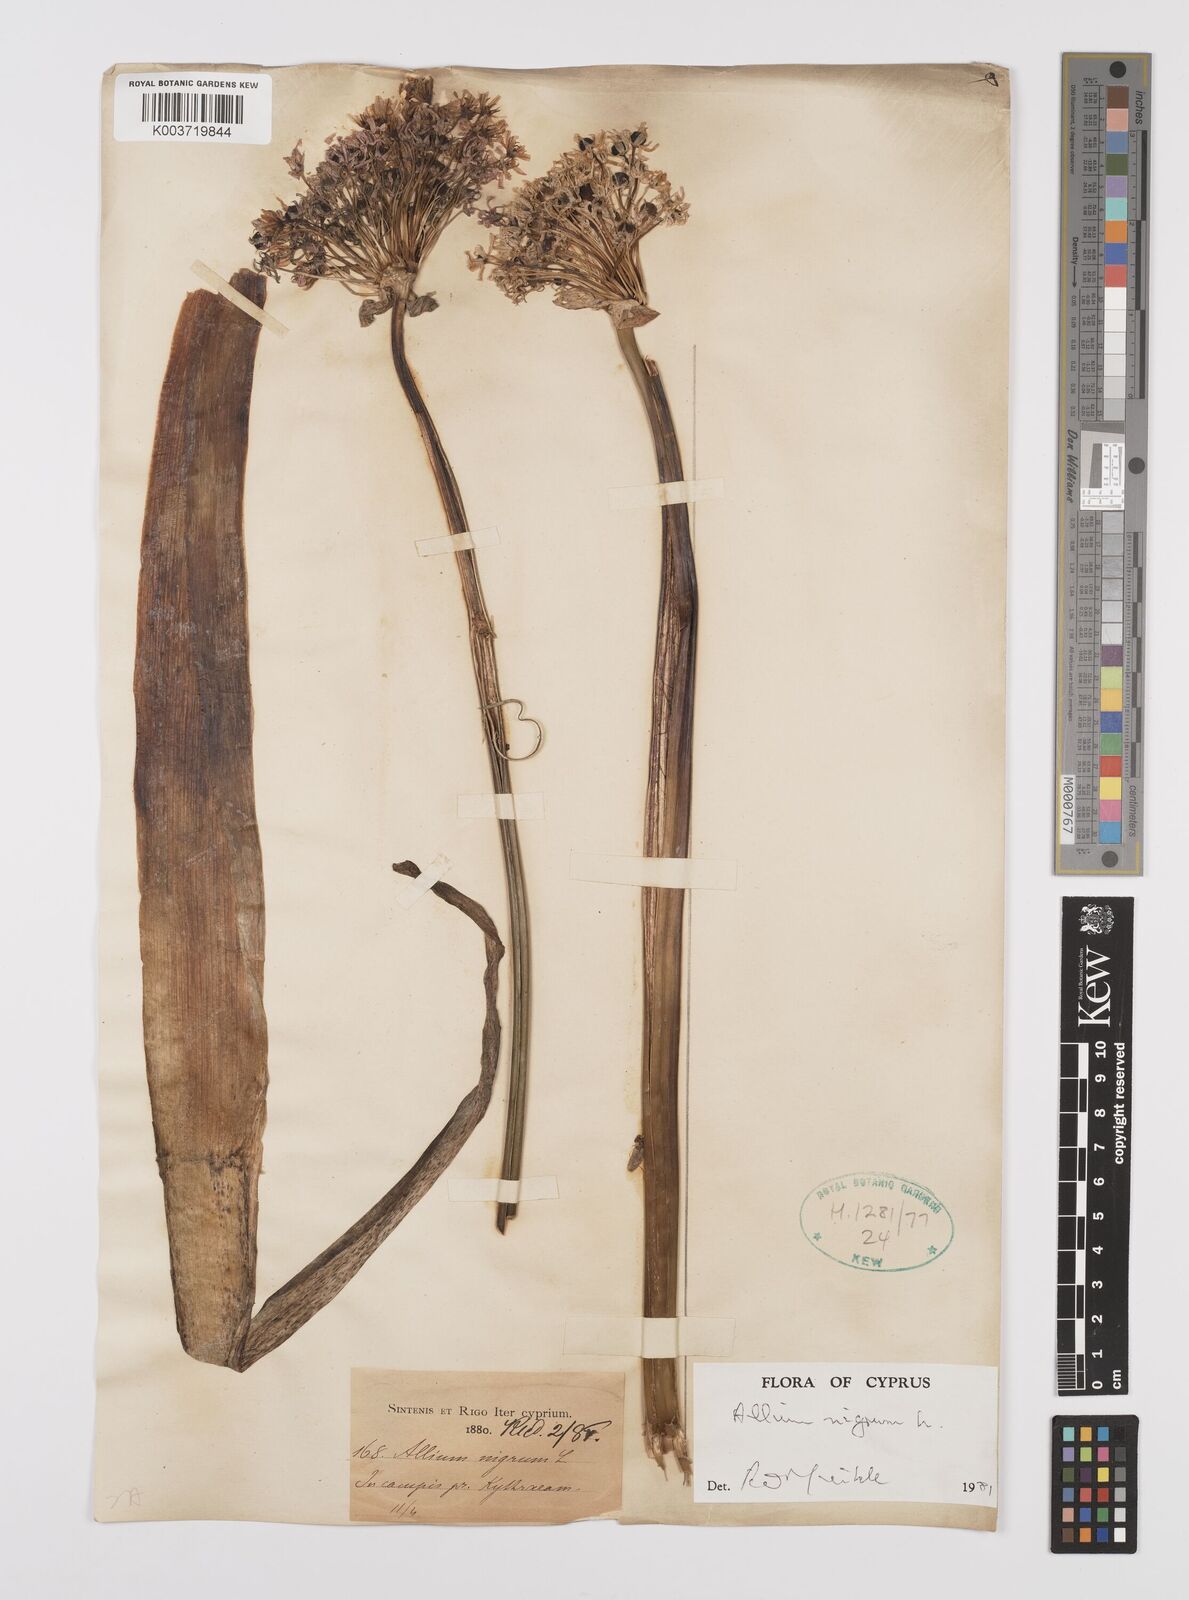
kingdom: Plantae
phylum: Tracheophyta
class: Liliopsida
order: Asparagales
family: Amaryllidaceae
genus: Allium
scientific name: Allium nigrum
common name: Black garlic
